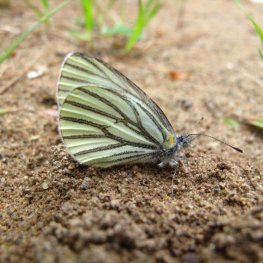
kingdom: Animalia
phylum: Arthropoda
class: Insecta
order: Lepidoptera
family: Pieridae
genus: Pieris
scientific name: Pieris oleracea
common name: Mustard White
